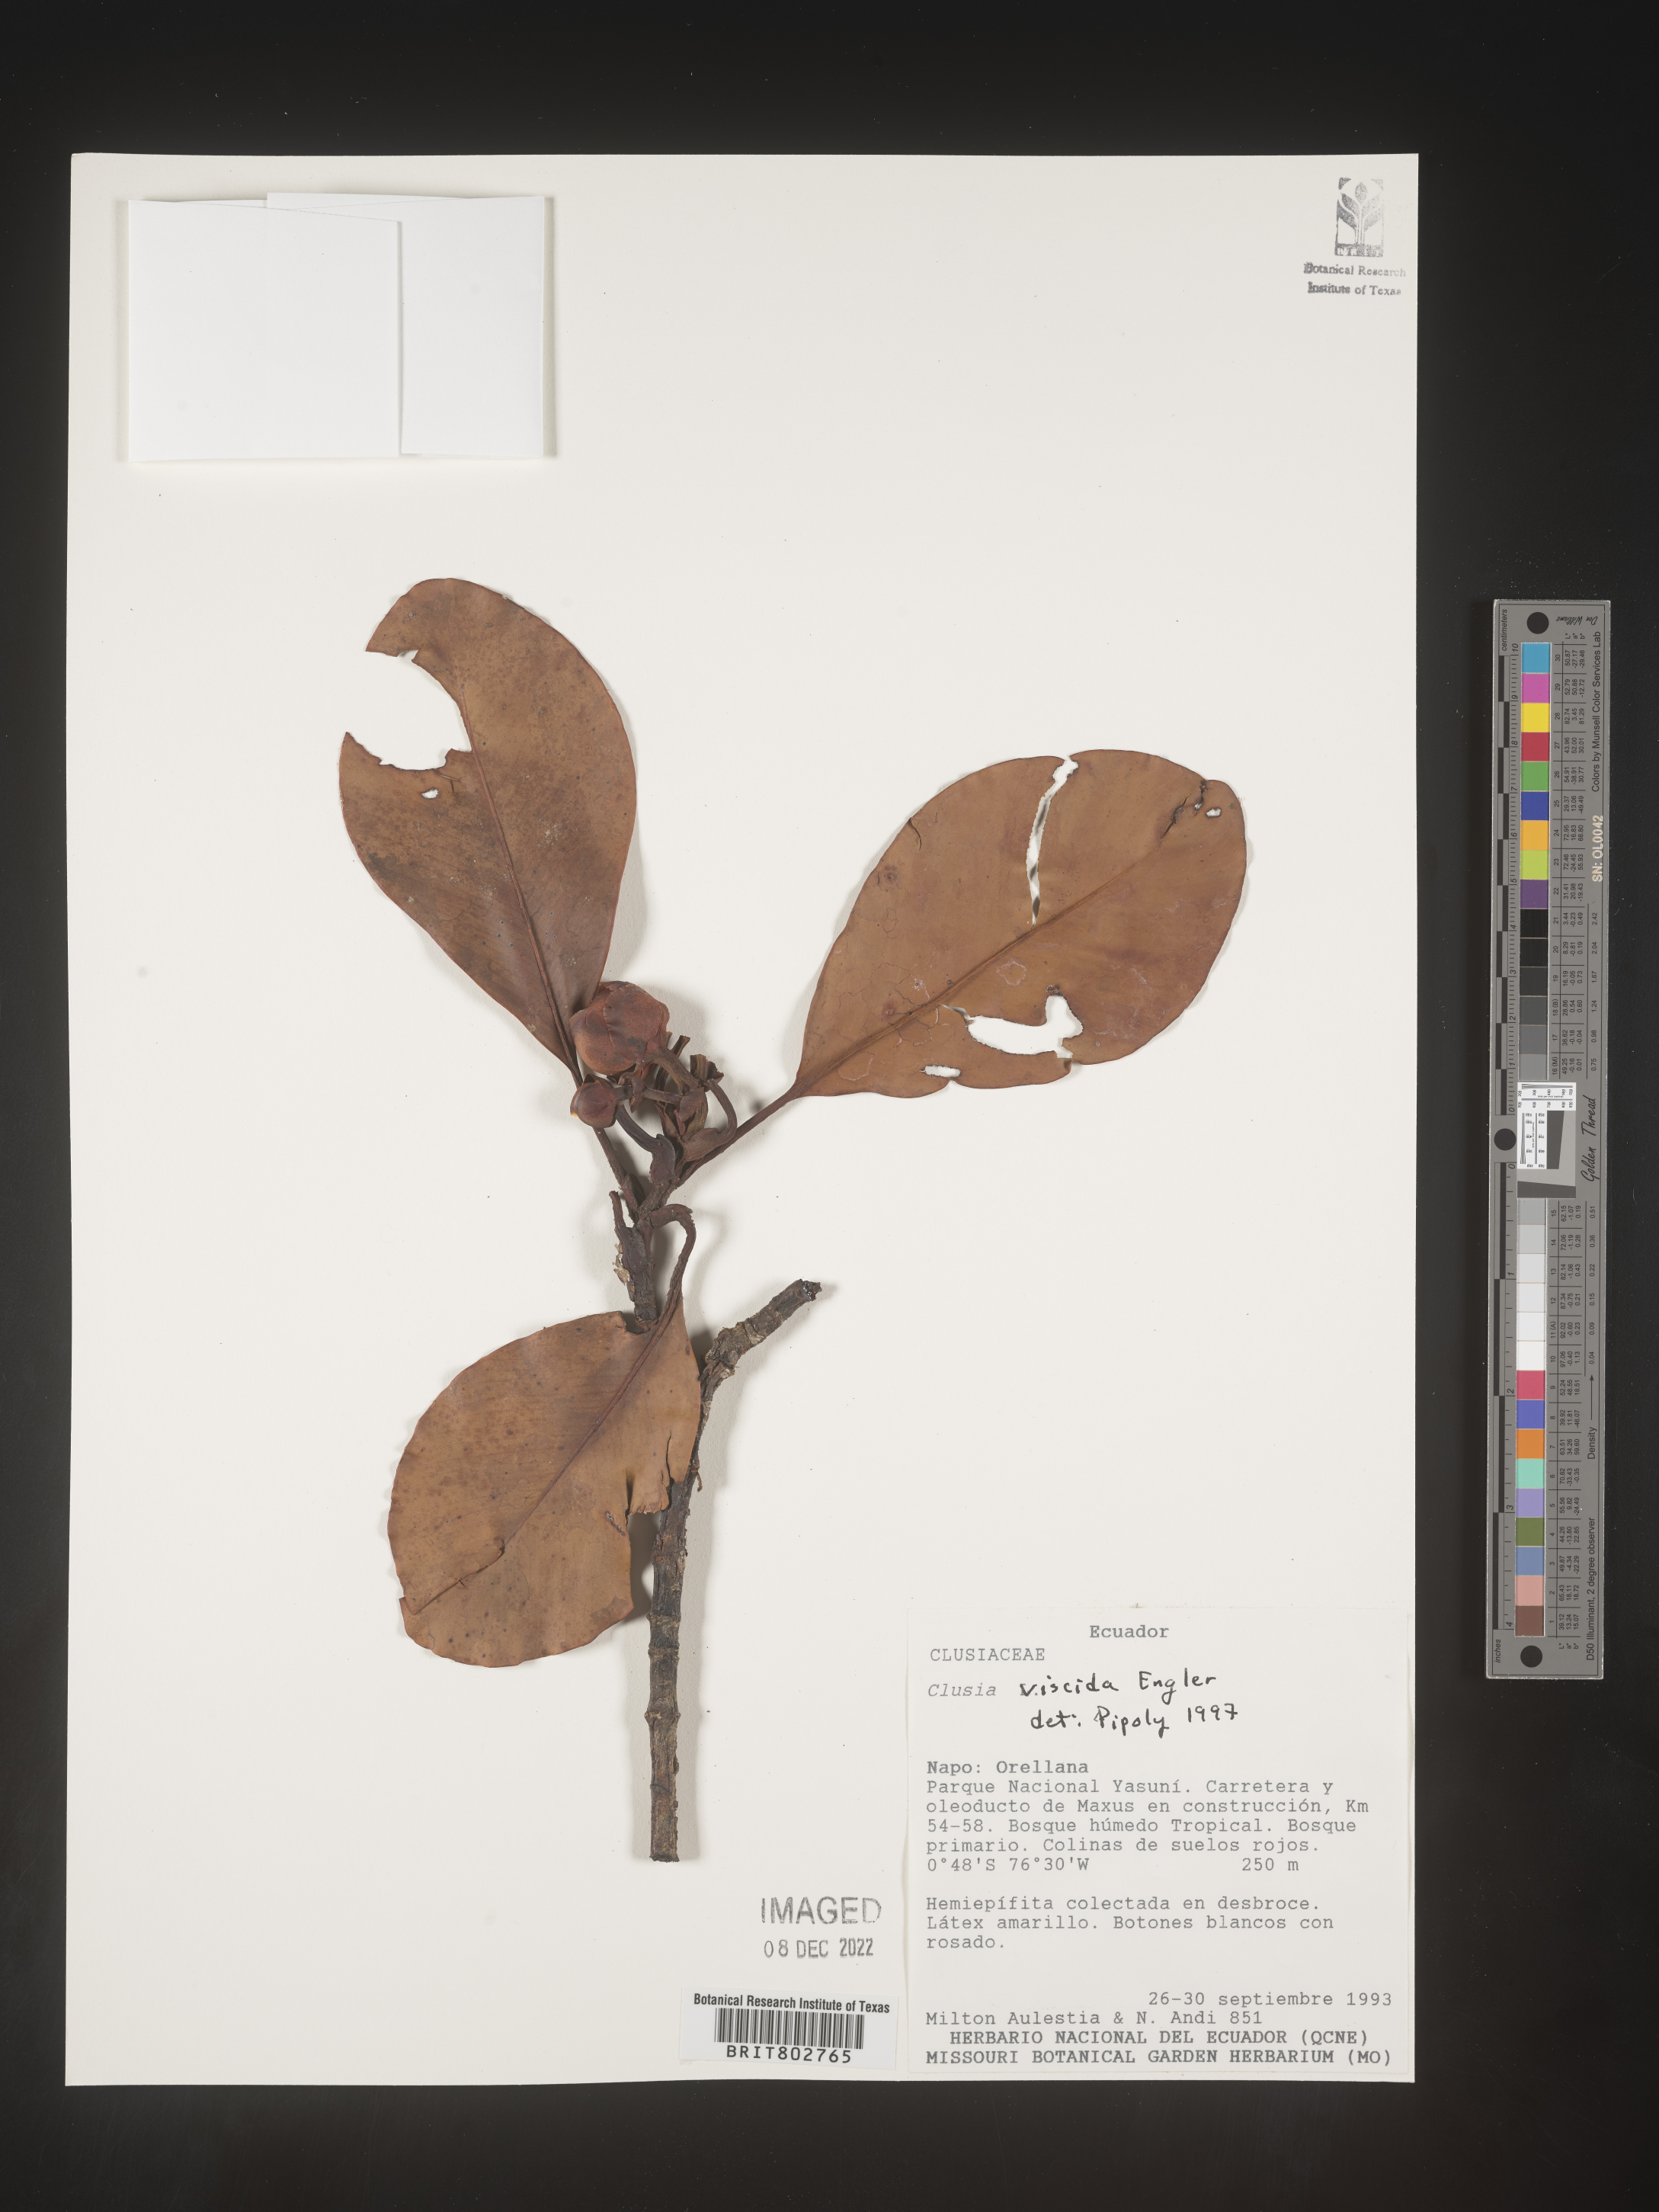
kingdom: Plantae
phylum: Tracheophyta
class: Magnoliopsida
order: Malpighiales
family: Clusiaceae
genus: Clusia
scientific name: Clusia viscida
